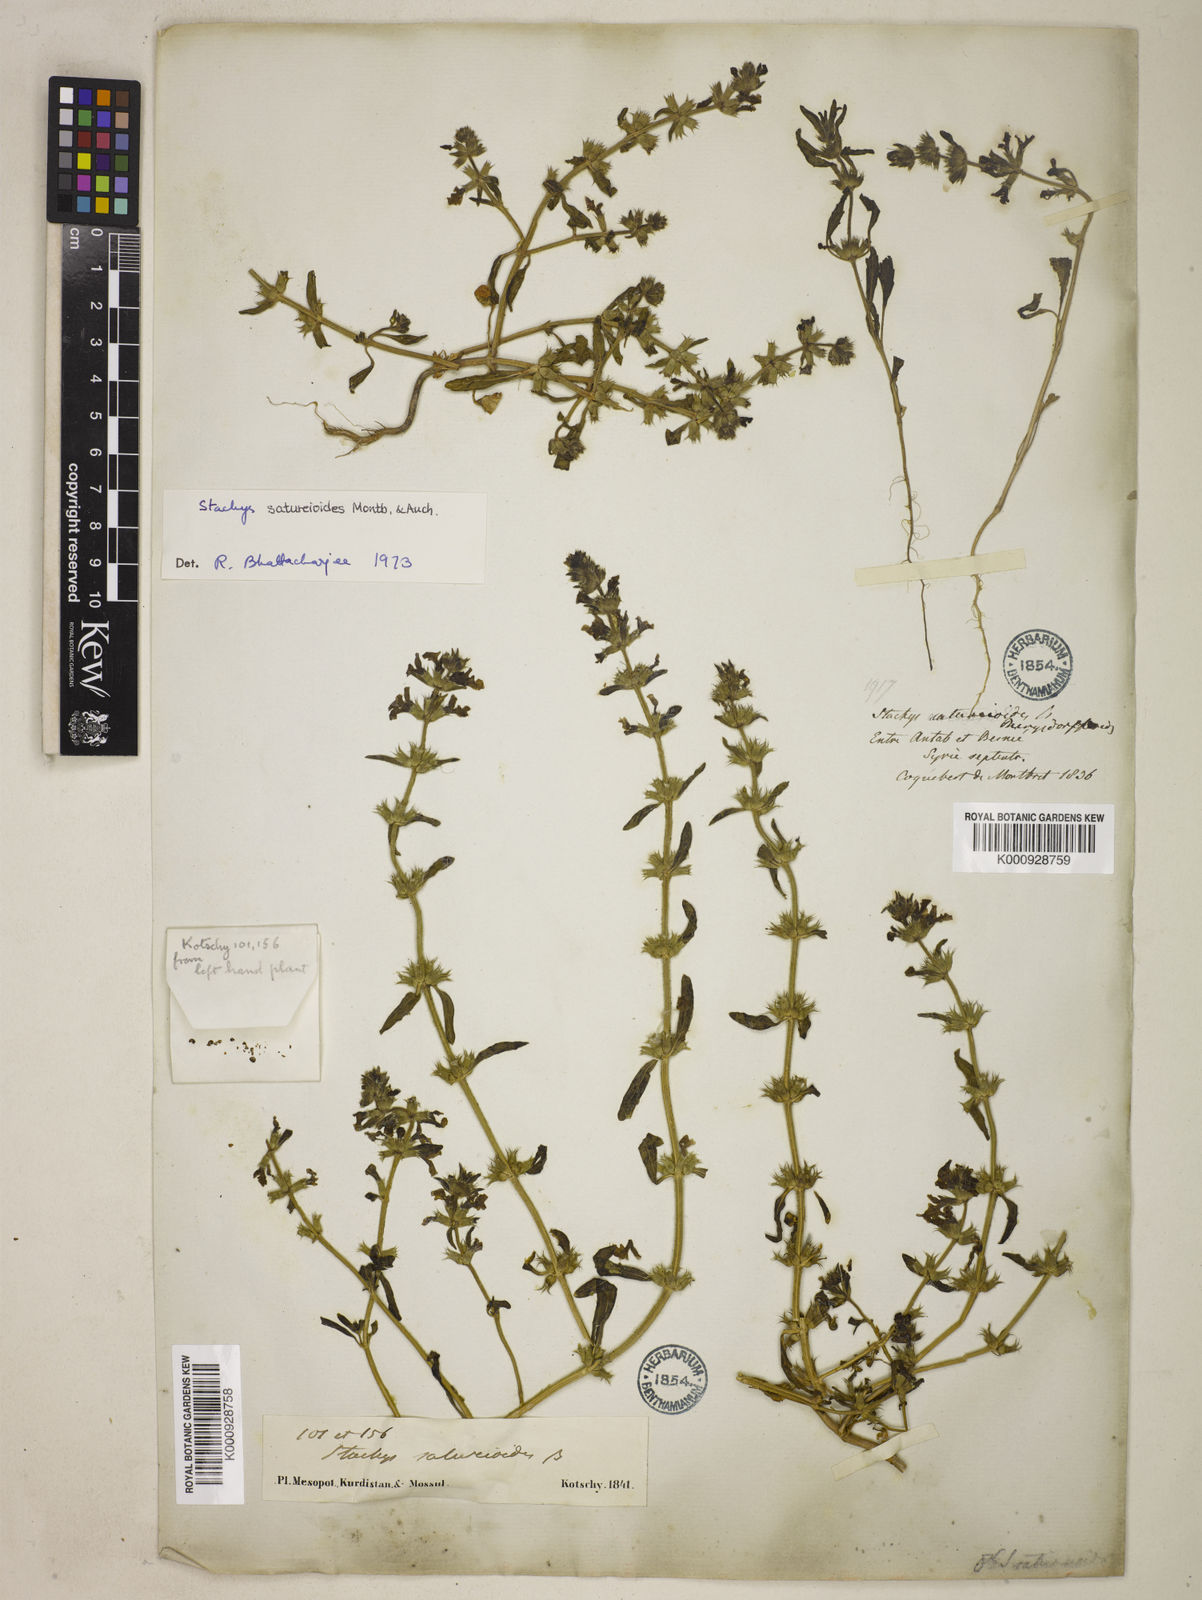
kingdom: Plantae
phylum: Tracheophyta
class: Magnoliopsida
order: Lamiales
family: Lamiaceae
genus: Stachys
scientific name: Stachys saturejoides
